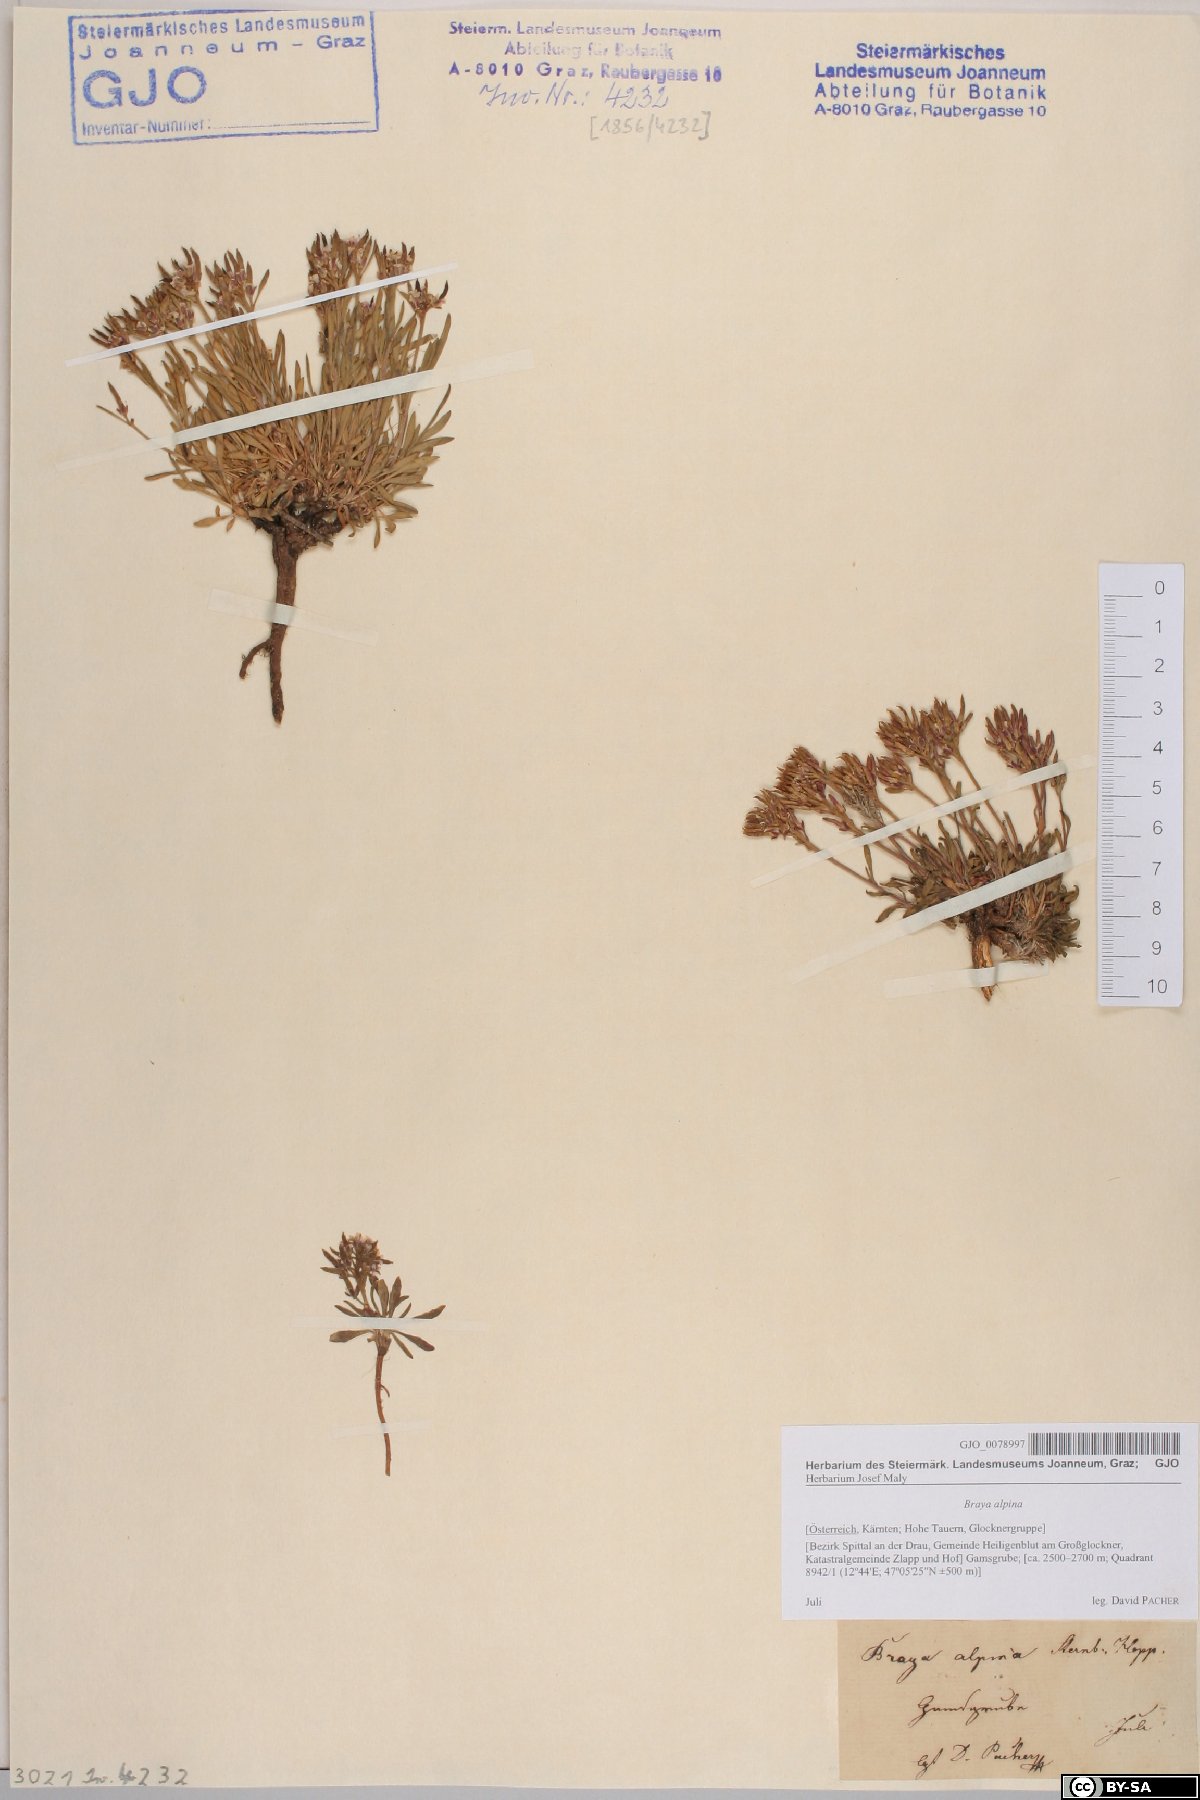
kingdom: Plantae
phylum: Tracheophyta
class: Magnoliopsida
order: Brassicales
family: Brassicaceae
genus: Braya
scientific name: Braya alpina
